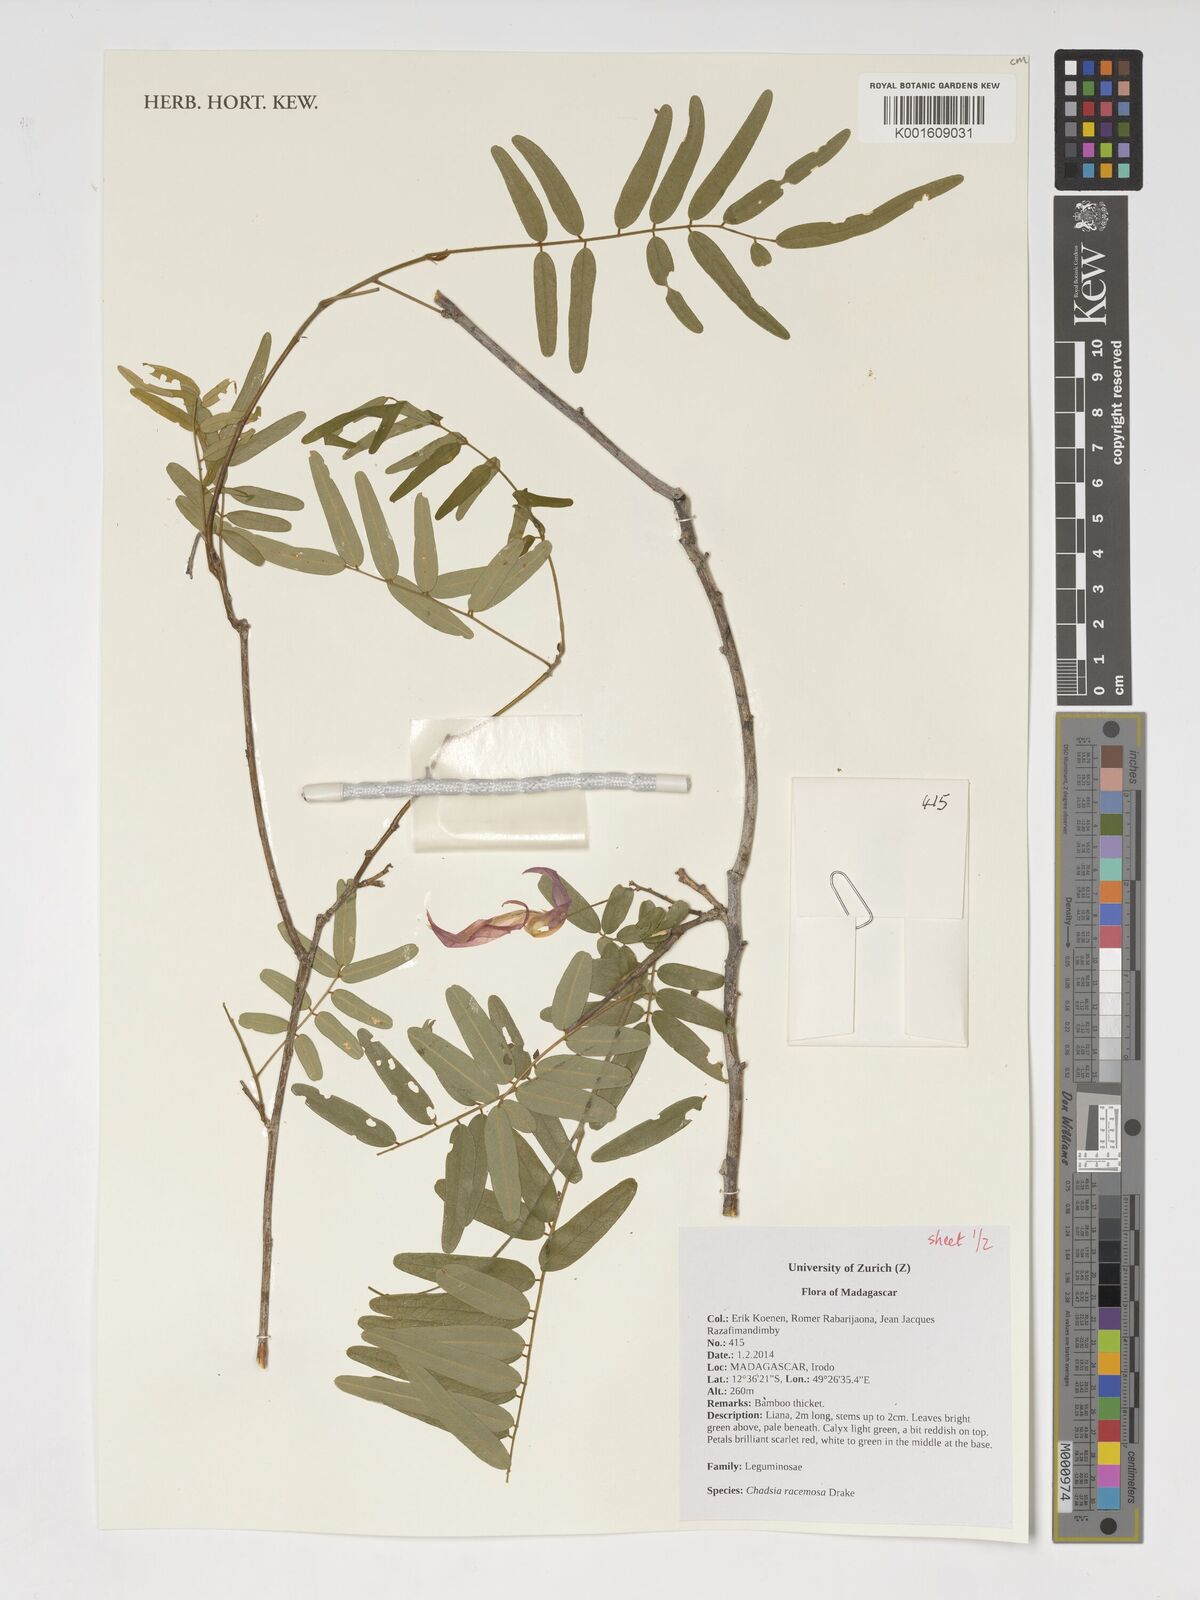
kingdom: Plantae
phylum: Tracheophyta
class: Magnoliopsida
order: Fabales
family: Fabaceae
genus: Chadsia
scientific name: Chadsia racemosa
